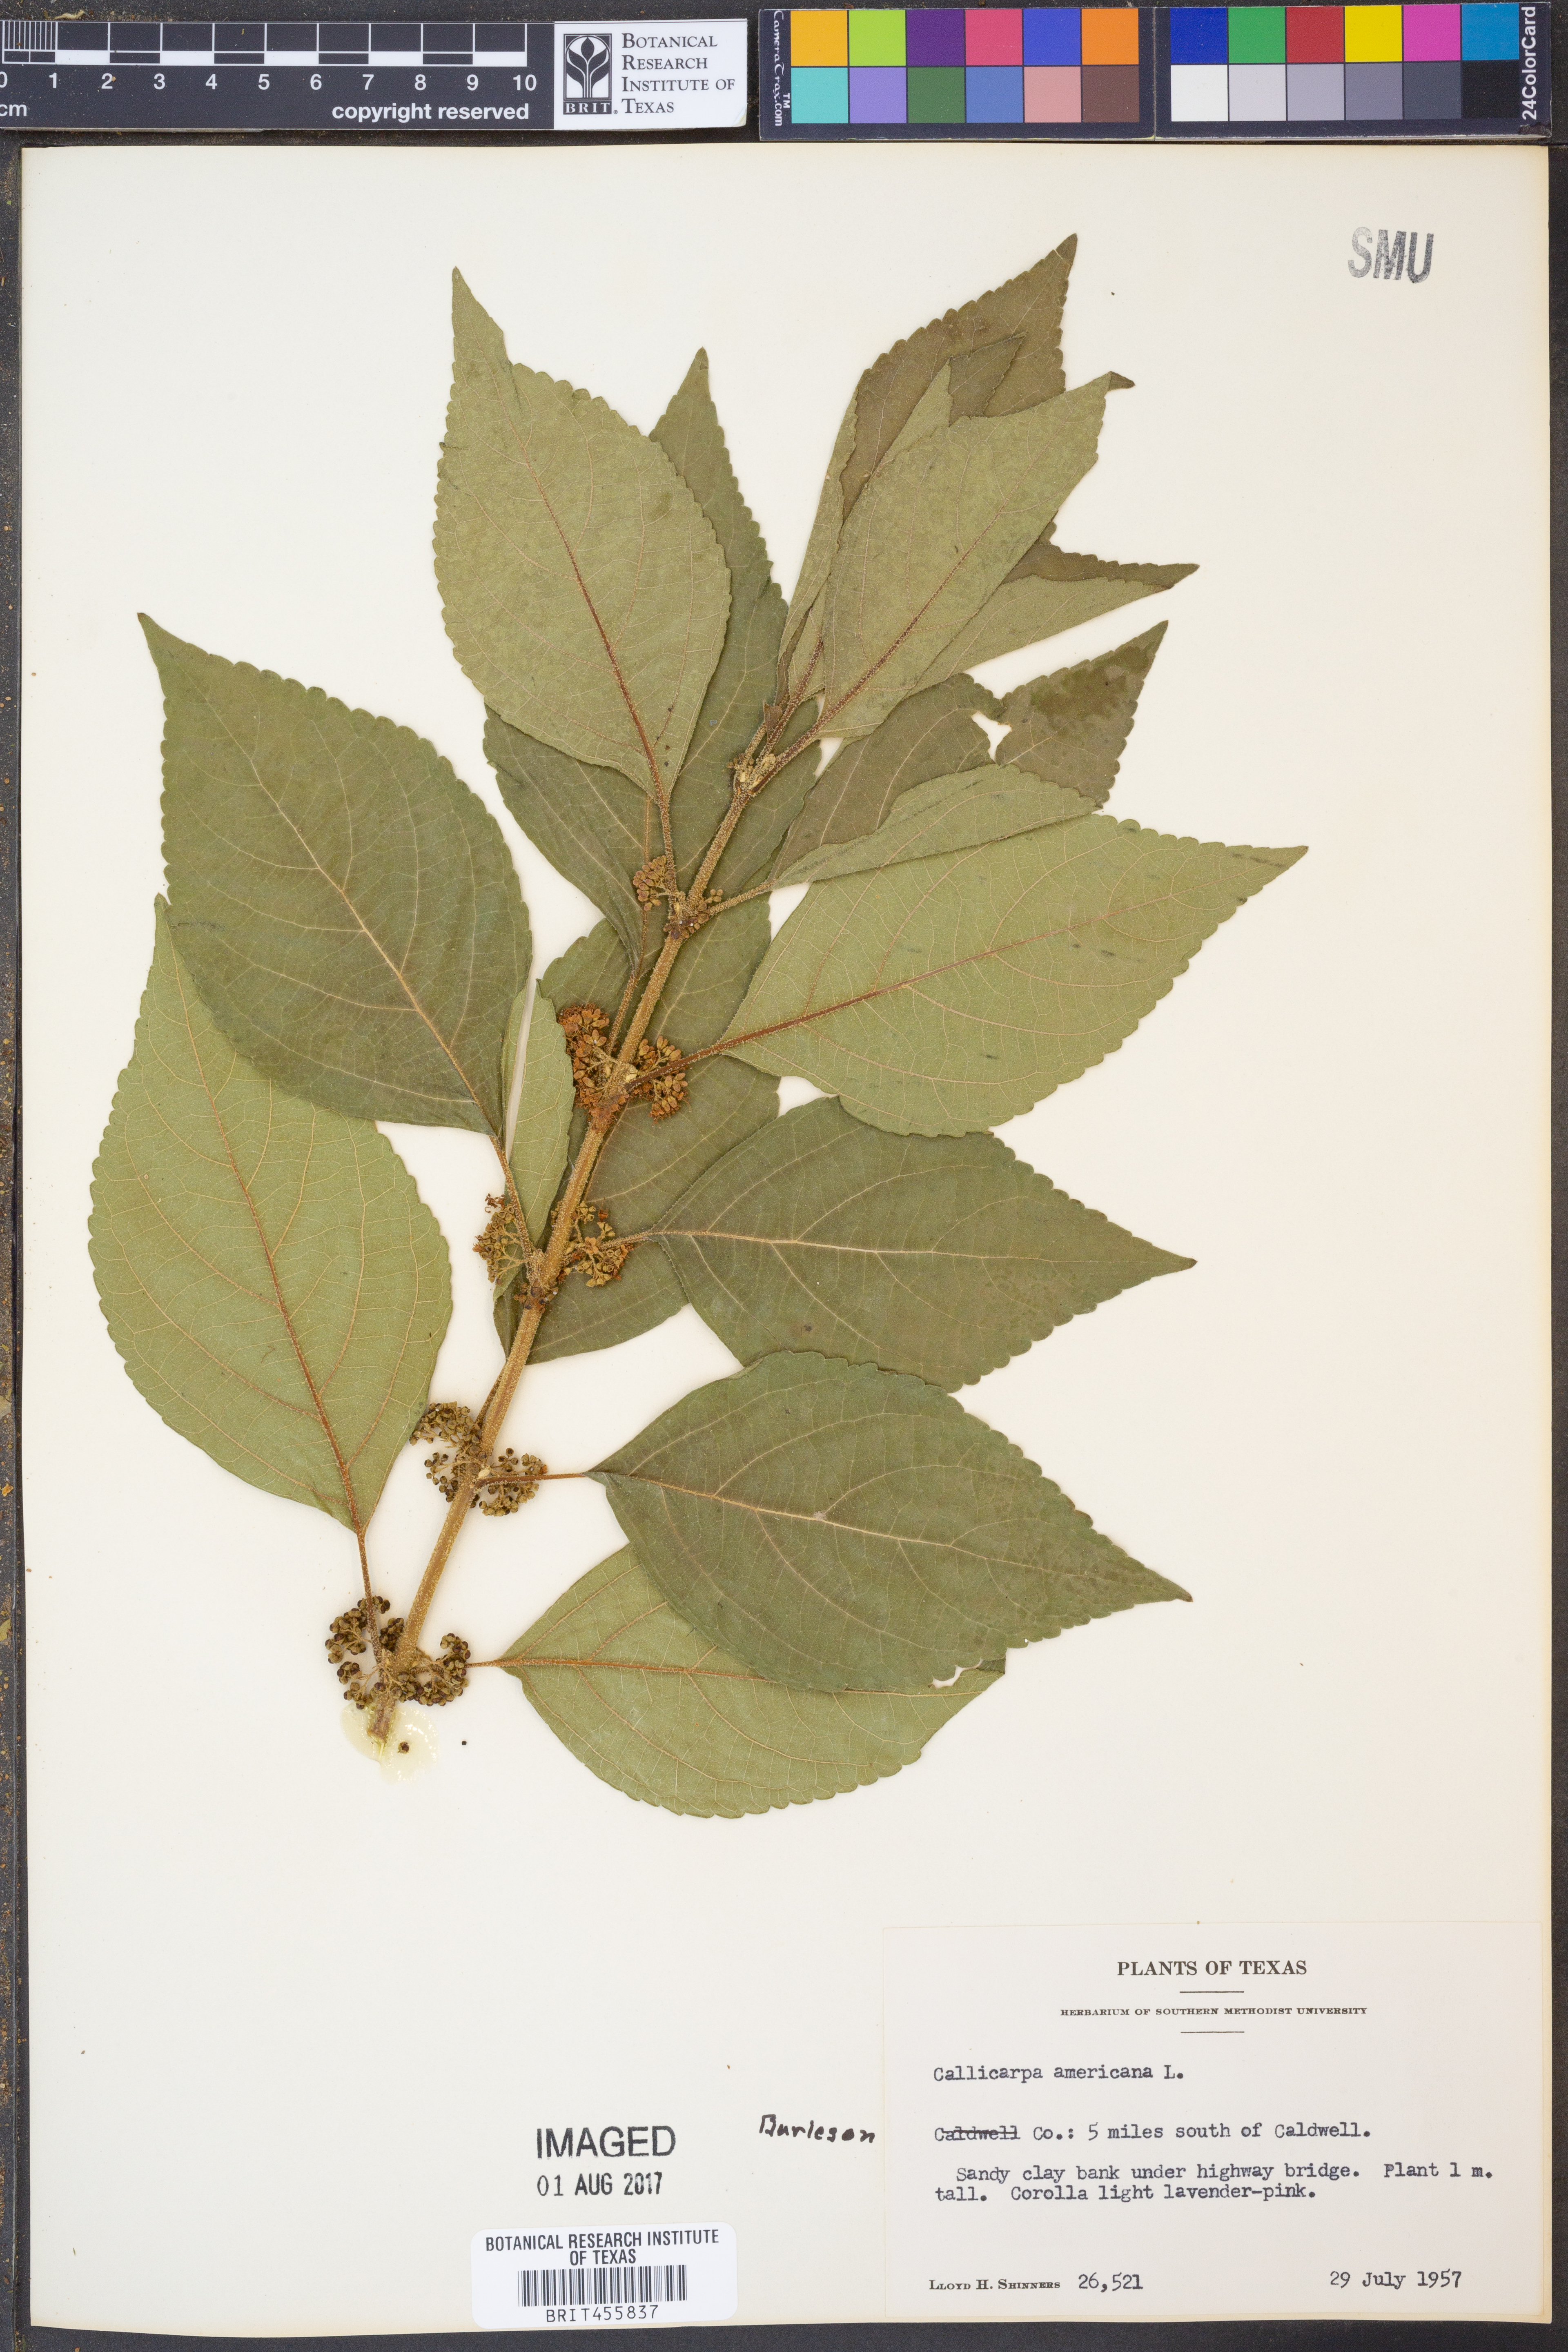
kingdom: Plantae
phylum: Tracheophyta
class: Magnoliopsida
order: Lamiales
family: Lamiaceae
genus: Callicarpa
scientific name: Callicarpa americana
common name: American beautyberry
